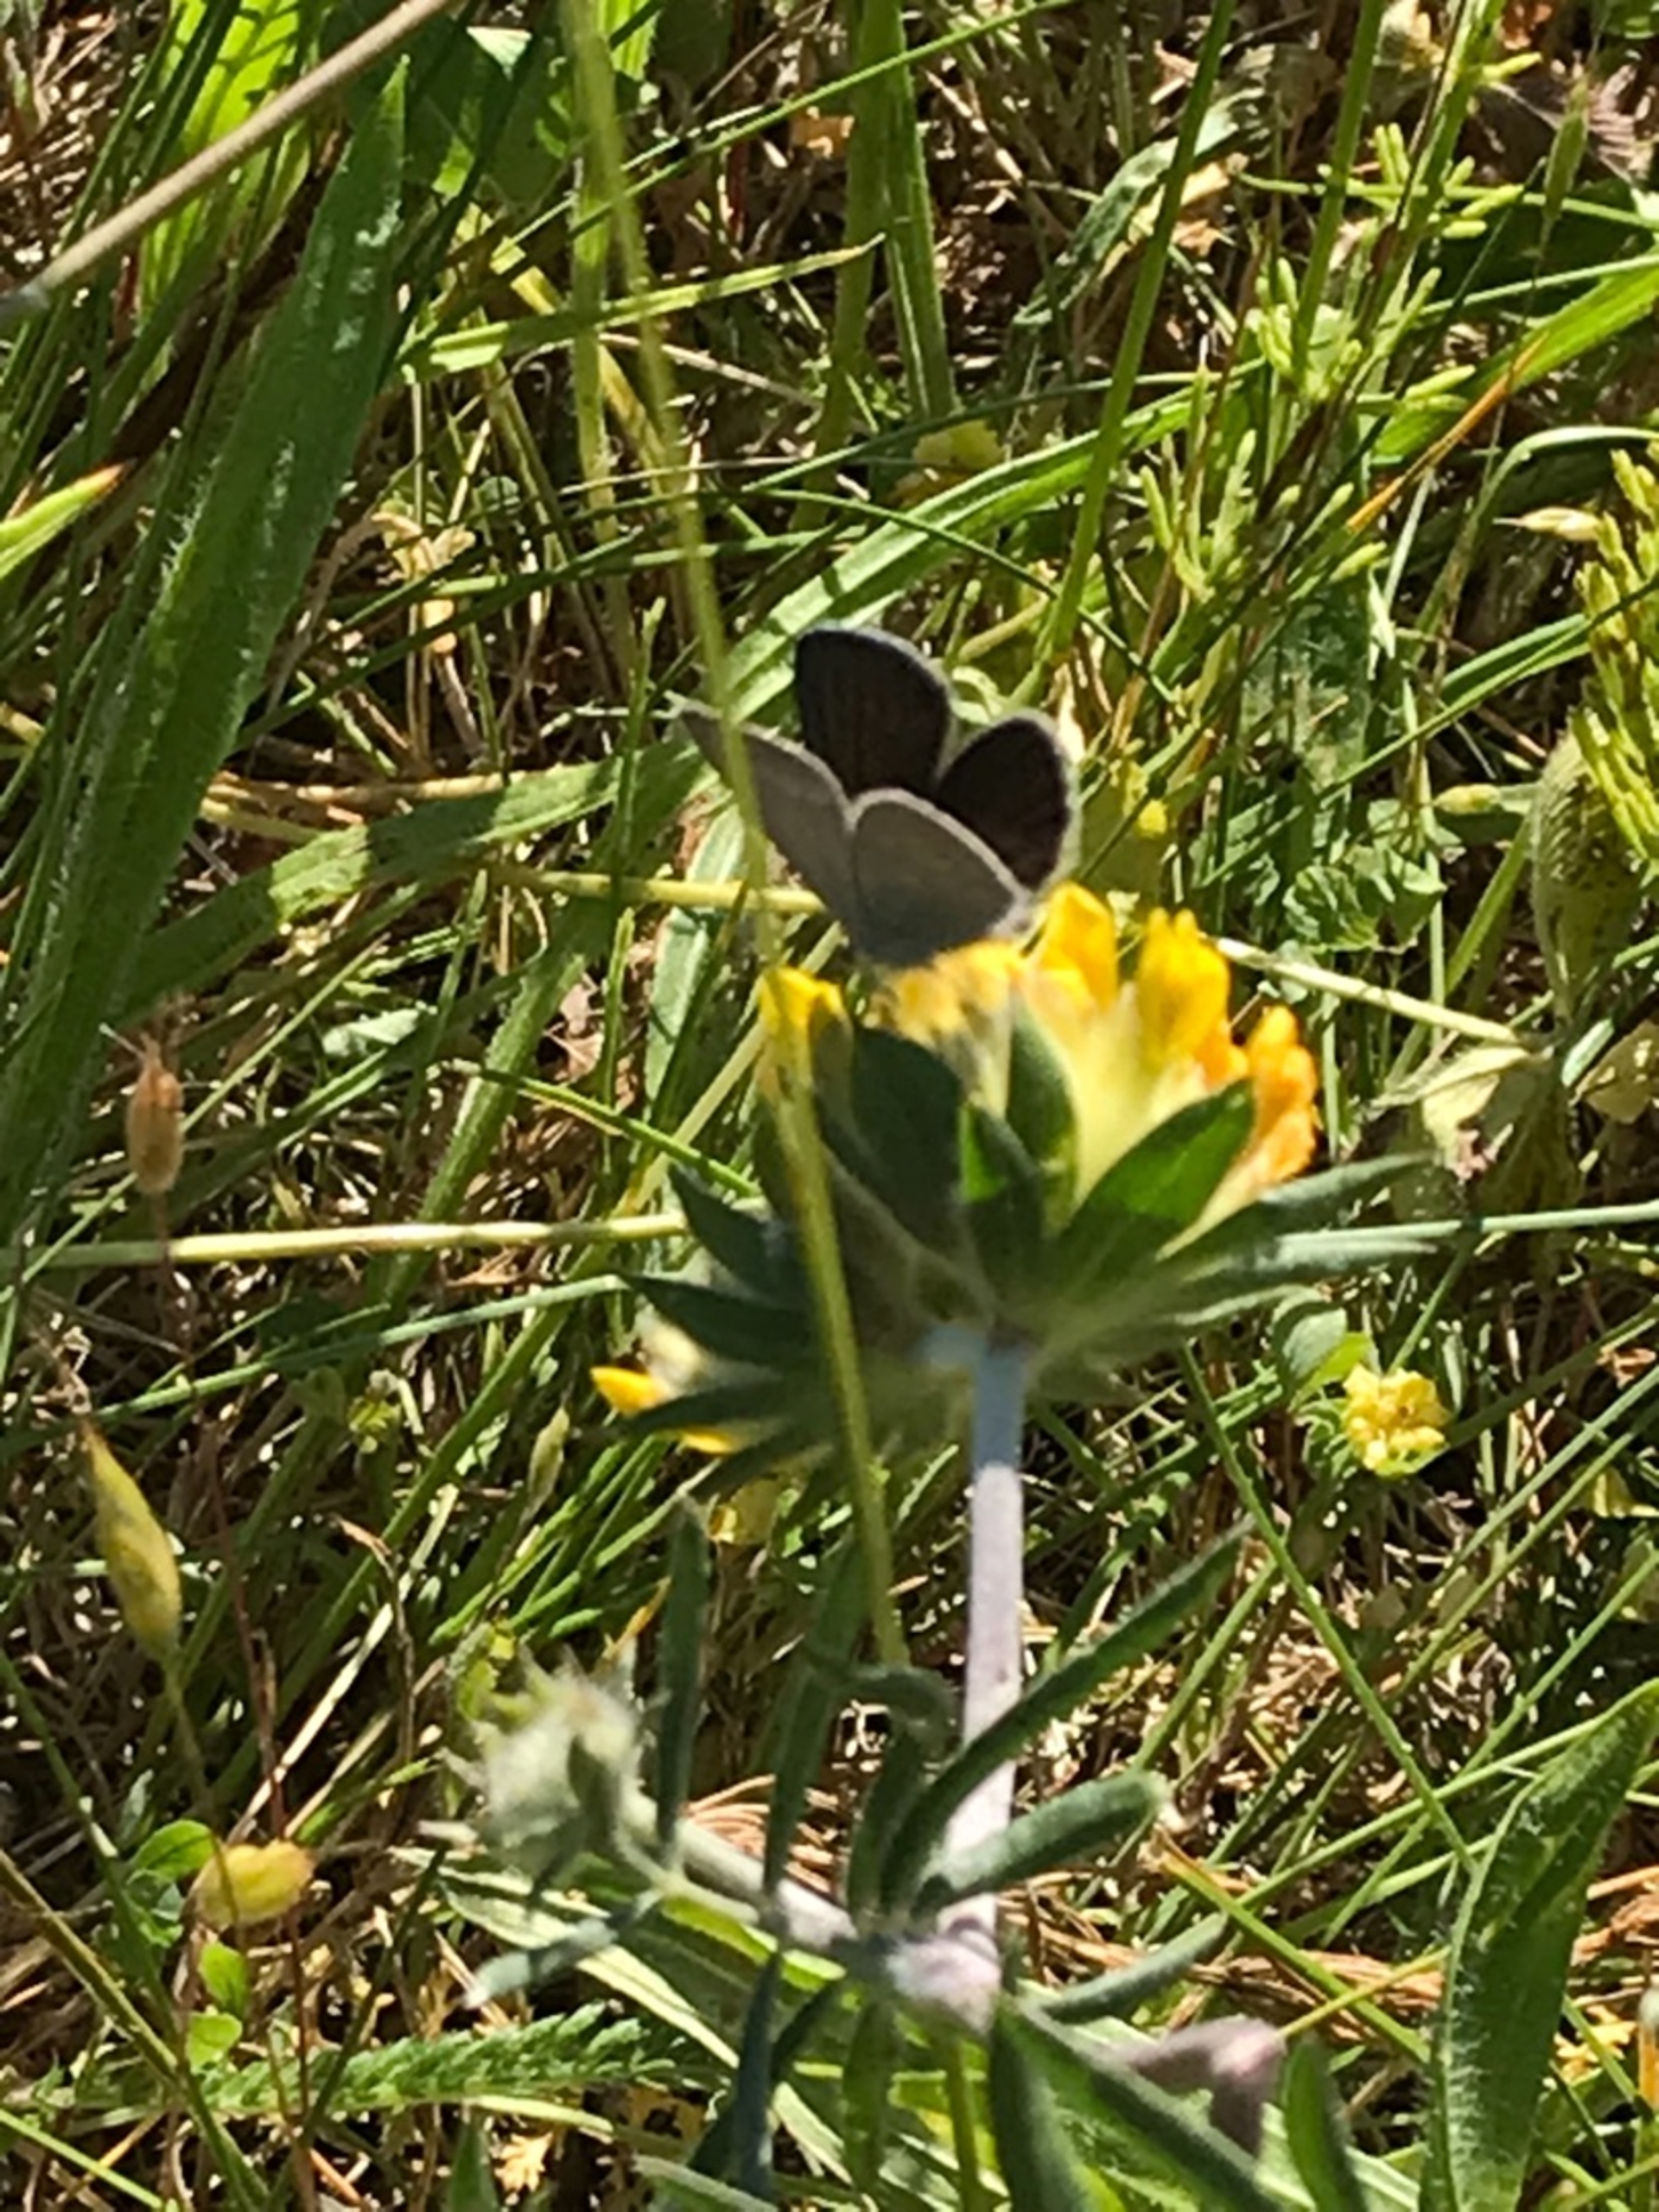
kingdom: Animalia
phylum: Arthropoda
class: Insecta
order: Lepidoptera
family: Lycaenidae
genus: Cupido
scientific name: Cupido minimus
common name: Dværgblåfugl
